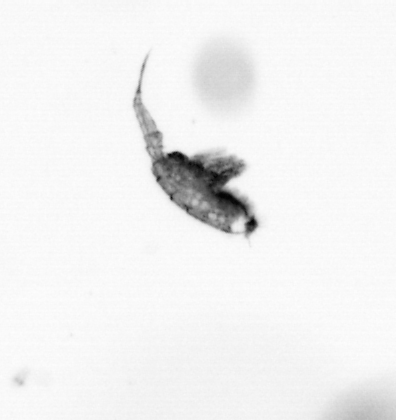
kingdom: Animalia
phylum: Arthropoda
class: Copepoda
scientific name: Copepoda
